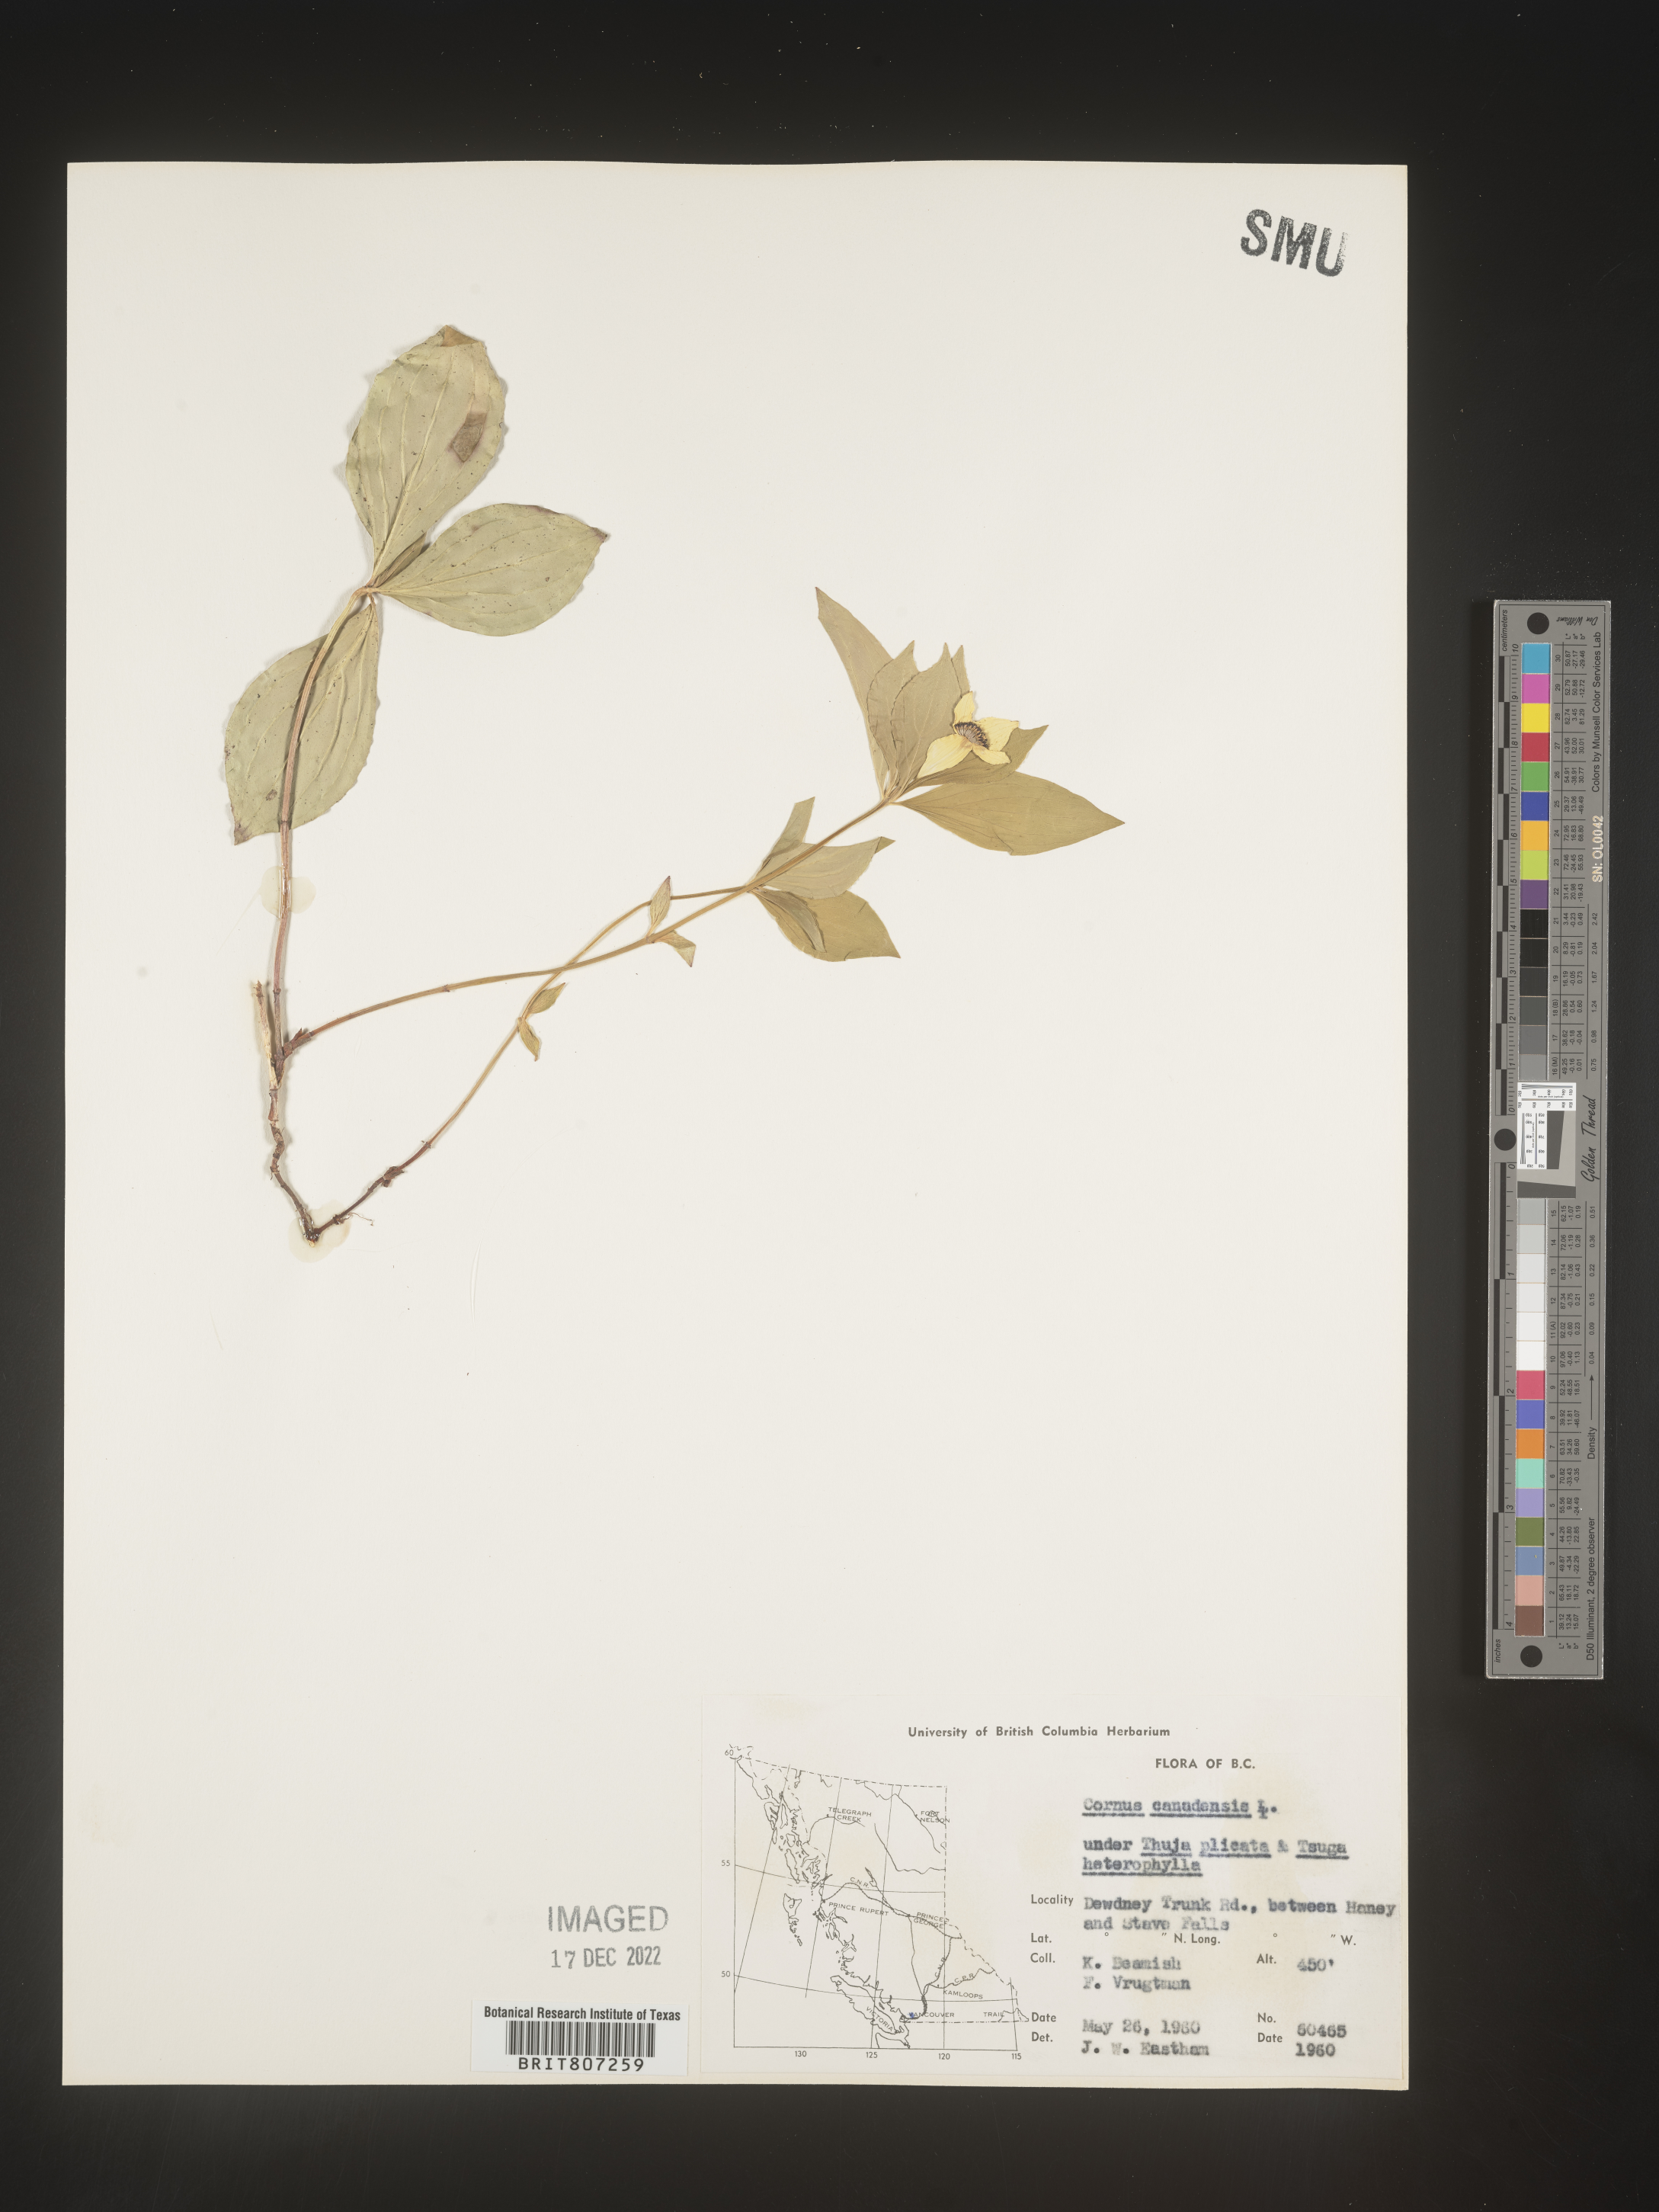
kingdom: Plantae
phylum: Tracheophyta
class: Magnoliopsida
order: Cornales
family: Cornaceae
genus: Cornus
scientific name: Cornus canadensis
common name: Creeping dogwood
